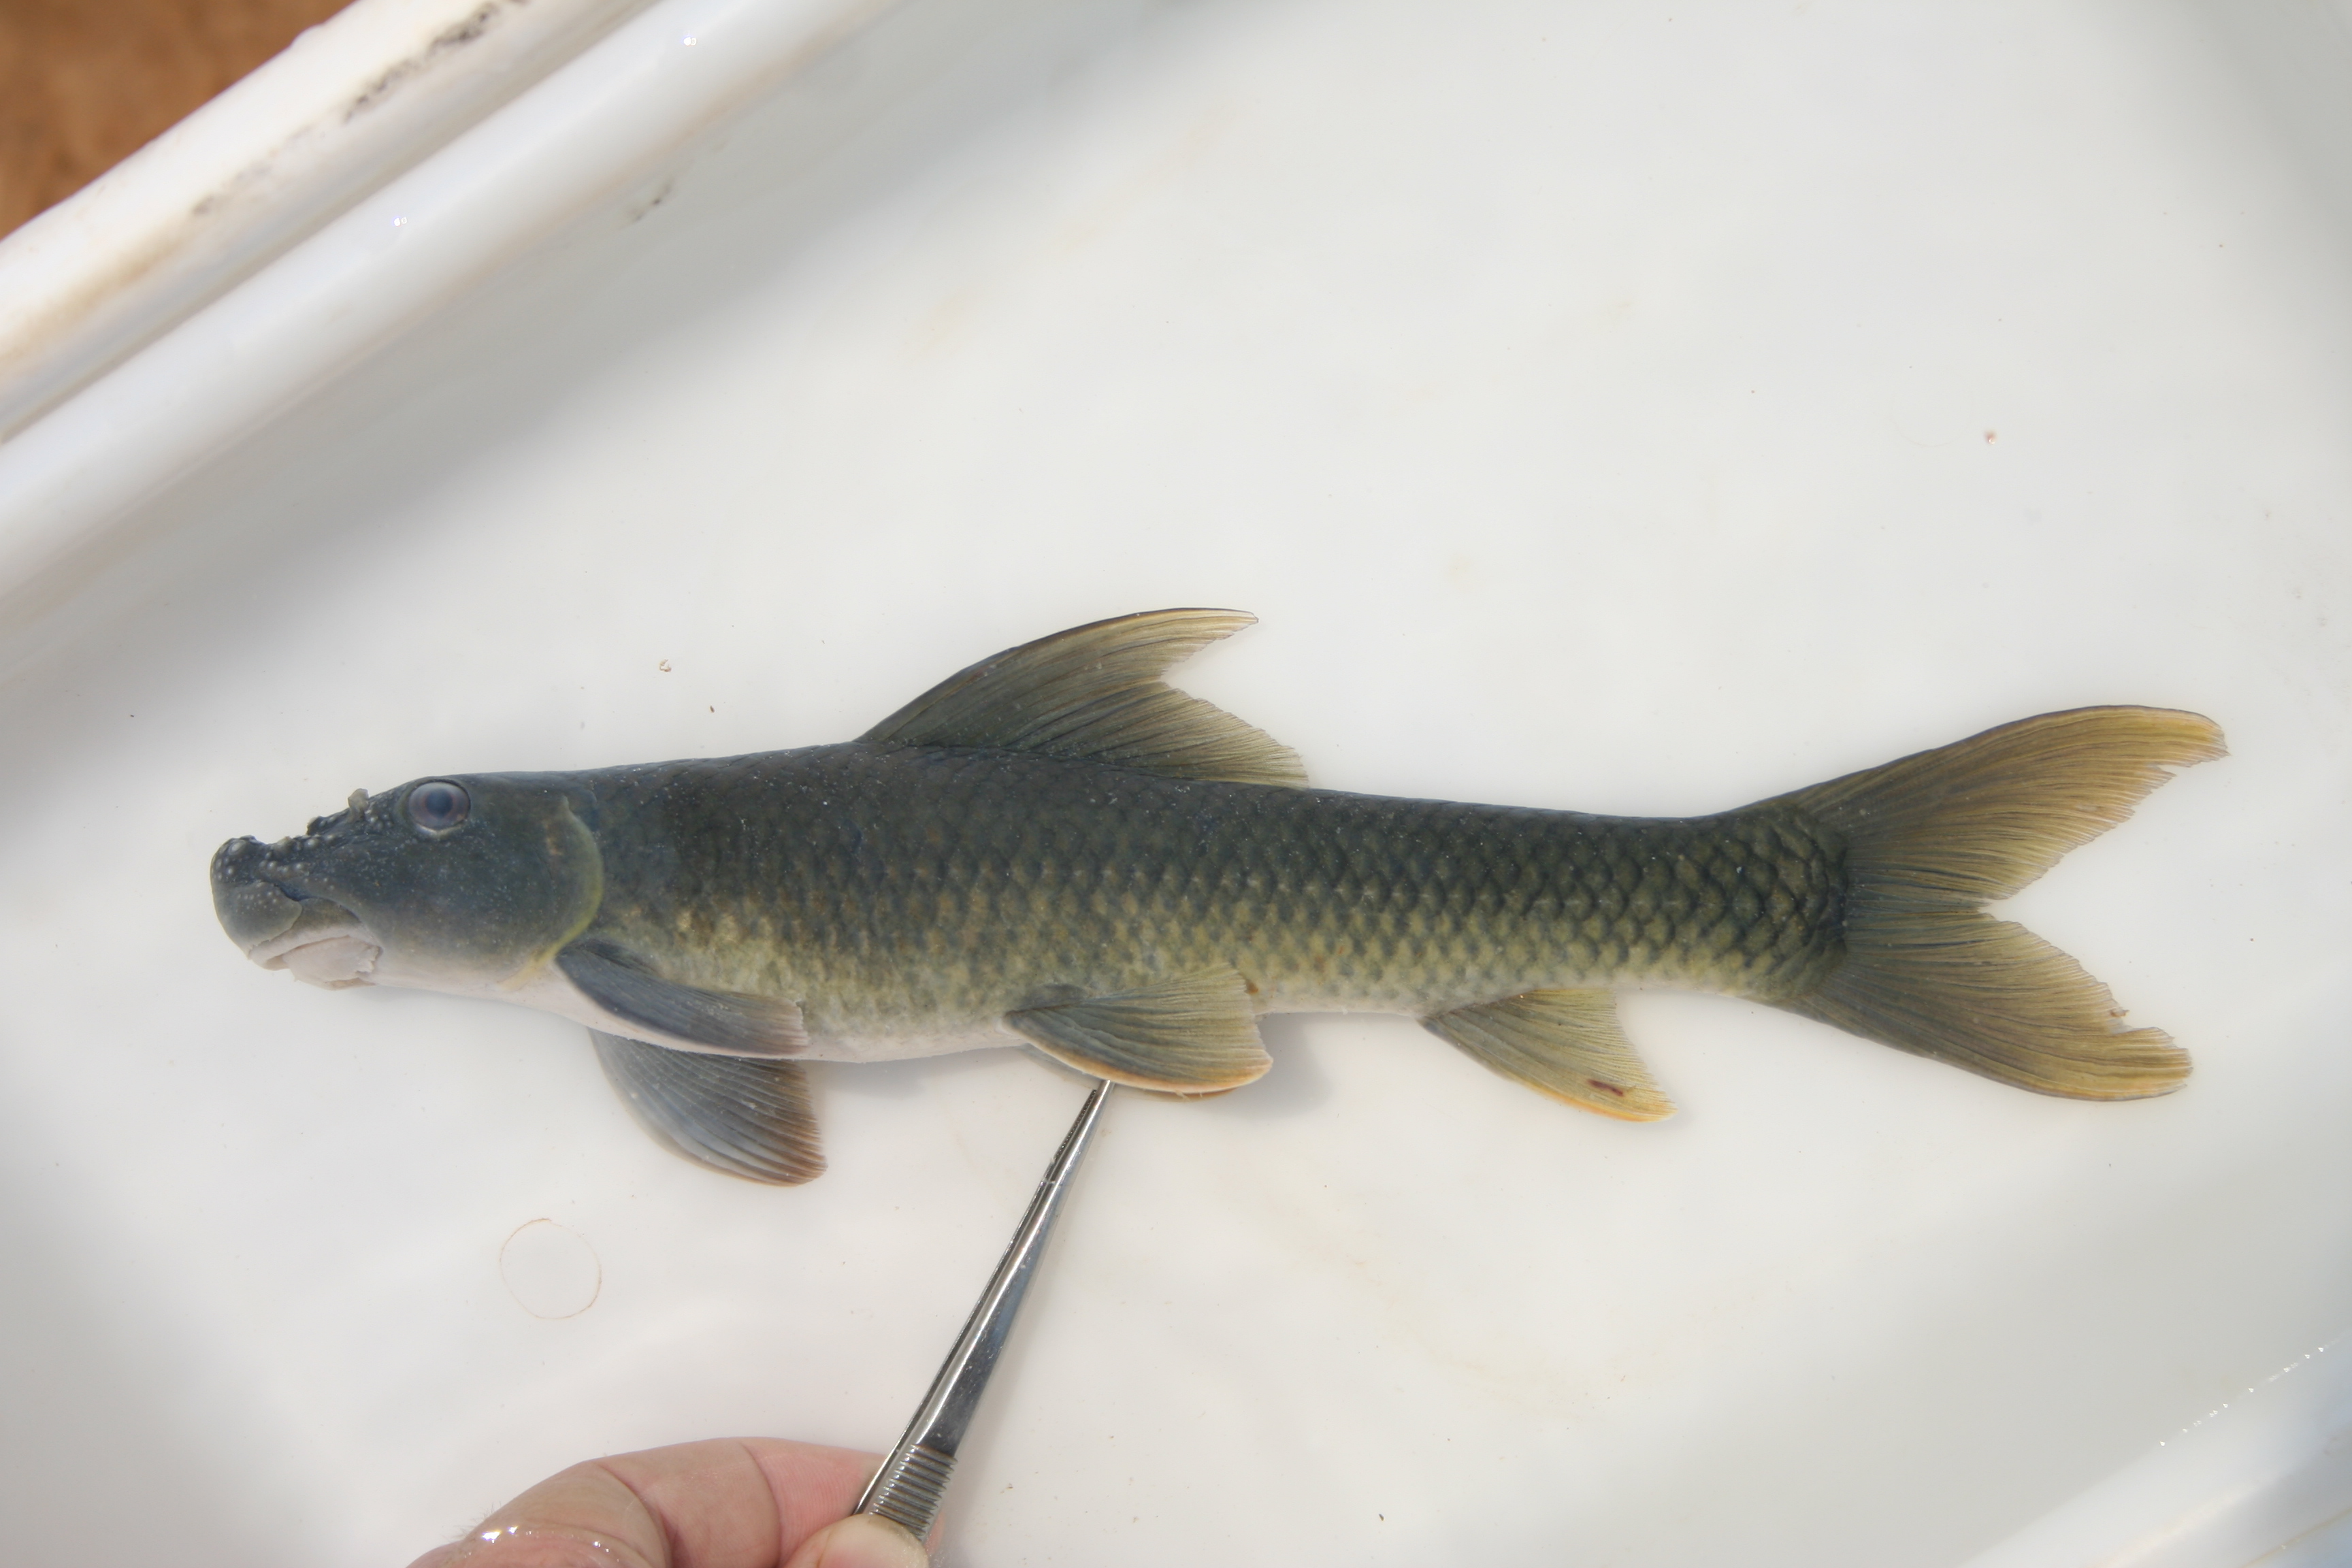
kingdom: Animalia
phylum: Chordata
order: Cypriniformes
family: Cyprinidae
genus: Labeo
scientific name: Labeo
